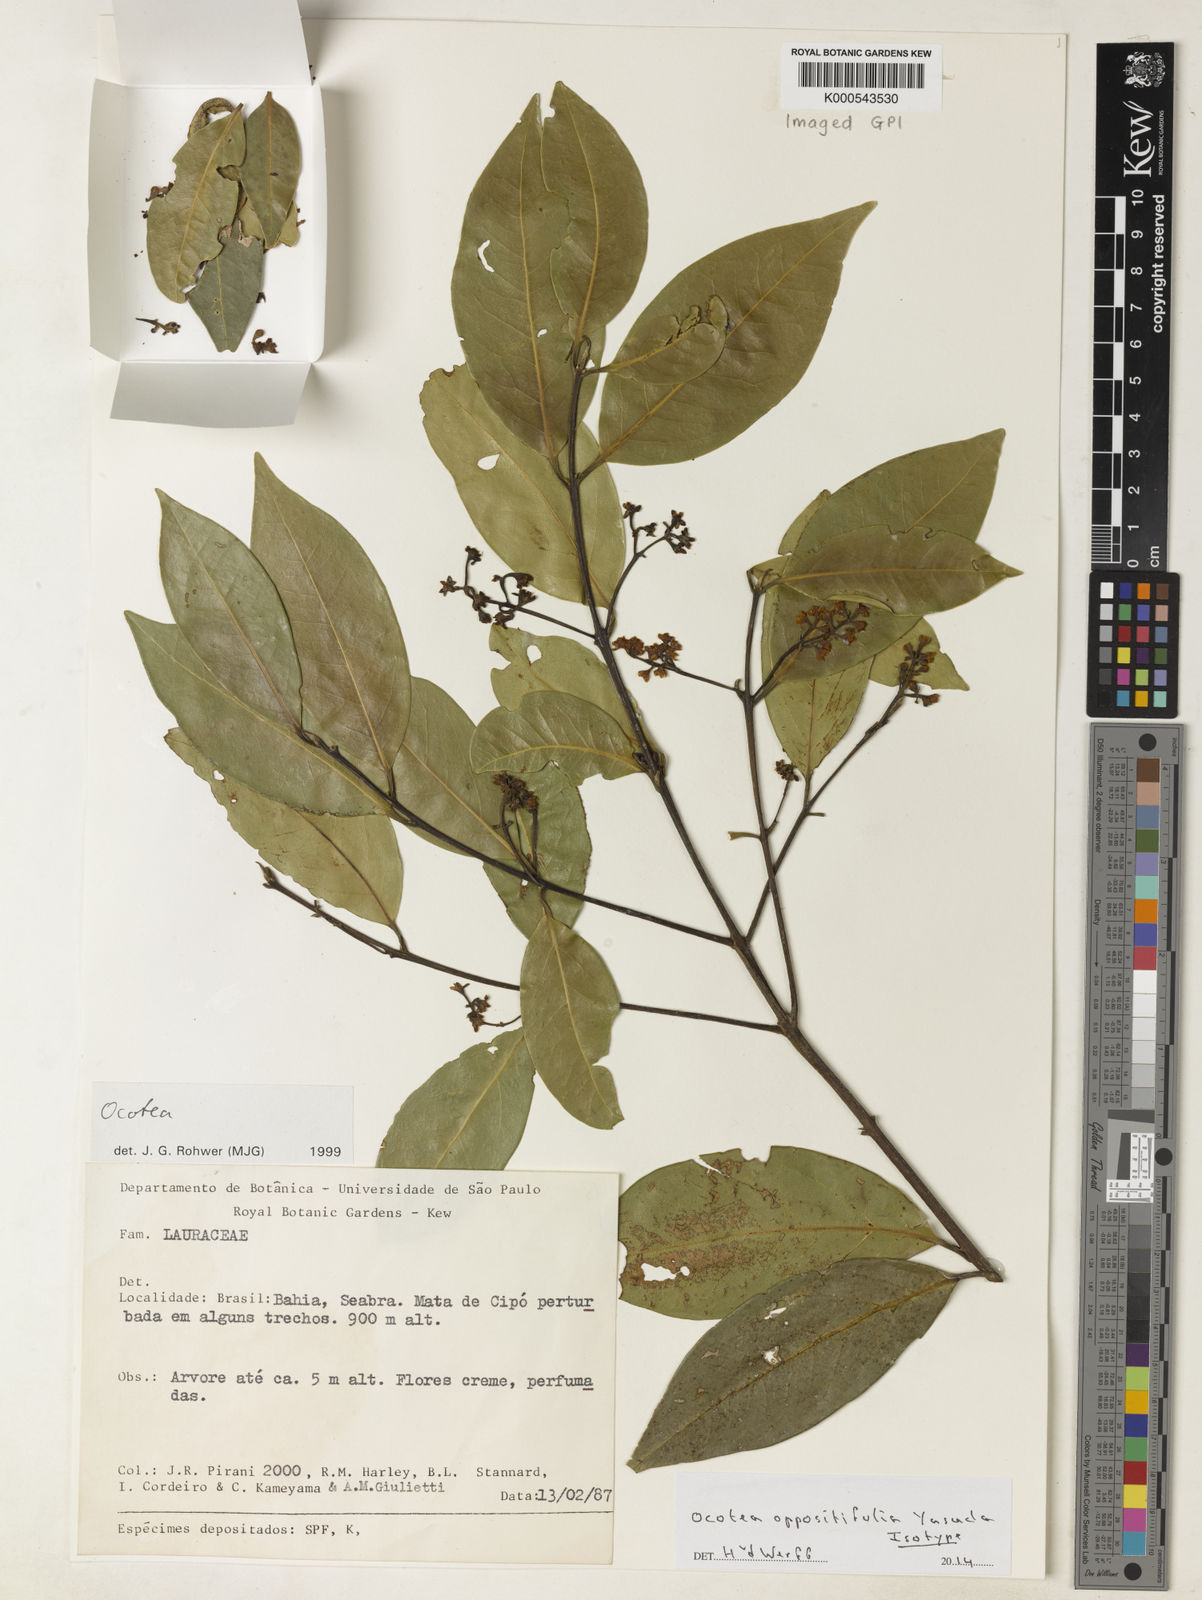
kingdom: Plantae
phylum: Tracheophyta
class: Magnoliopsida
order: Laurales
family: Lauraceae
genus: Ocotea
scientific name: Ocotea oppositifolia
